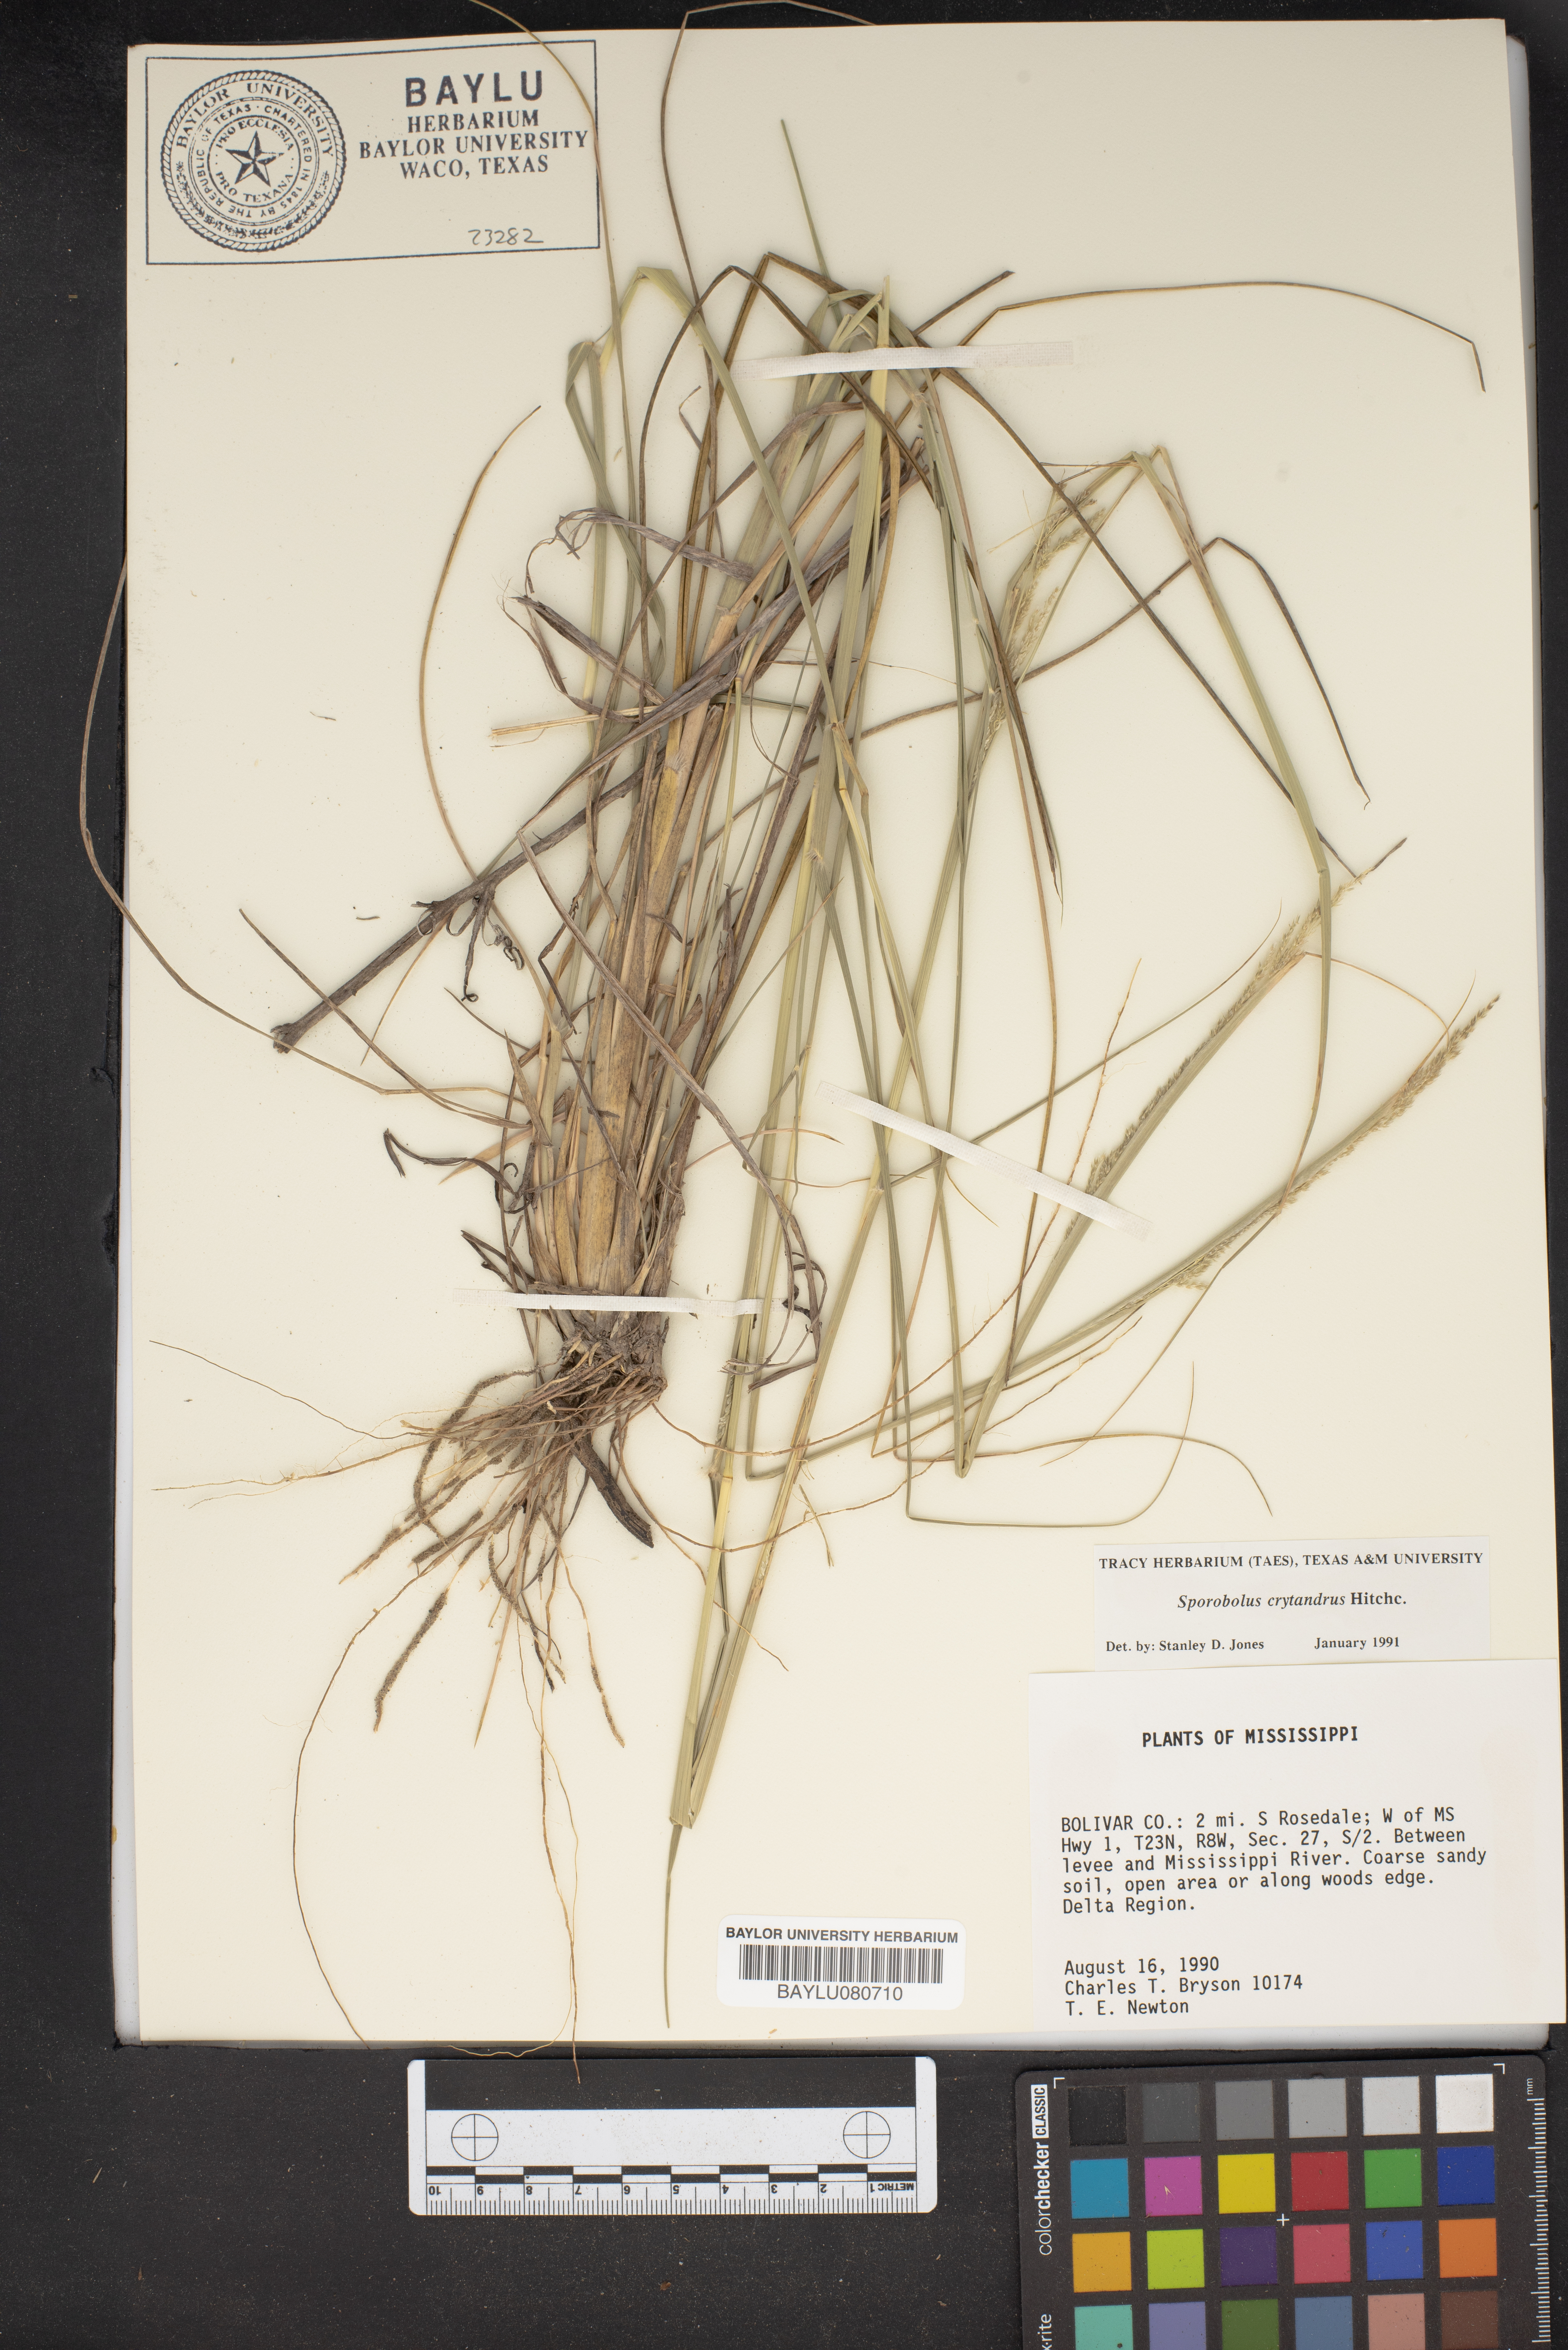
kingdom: Plantae
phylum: Tracheophyta
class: Liliopsida
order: Poales
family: Poaceae
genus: Sporobolus
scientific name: Sporobolus cryptandrus
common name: Sand dropseed
